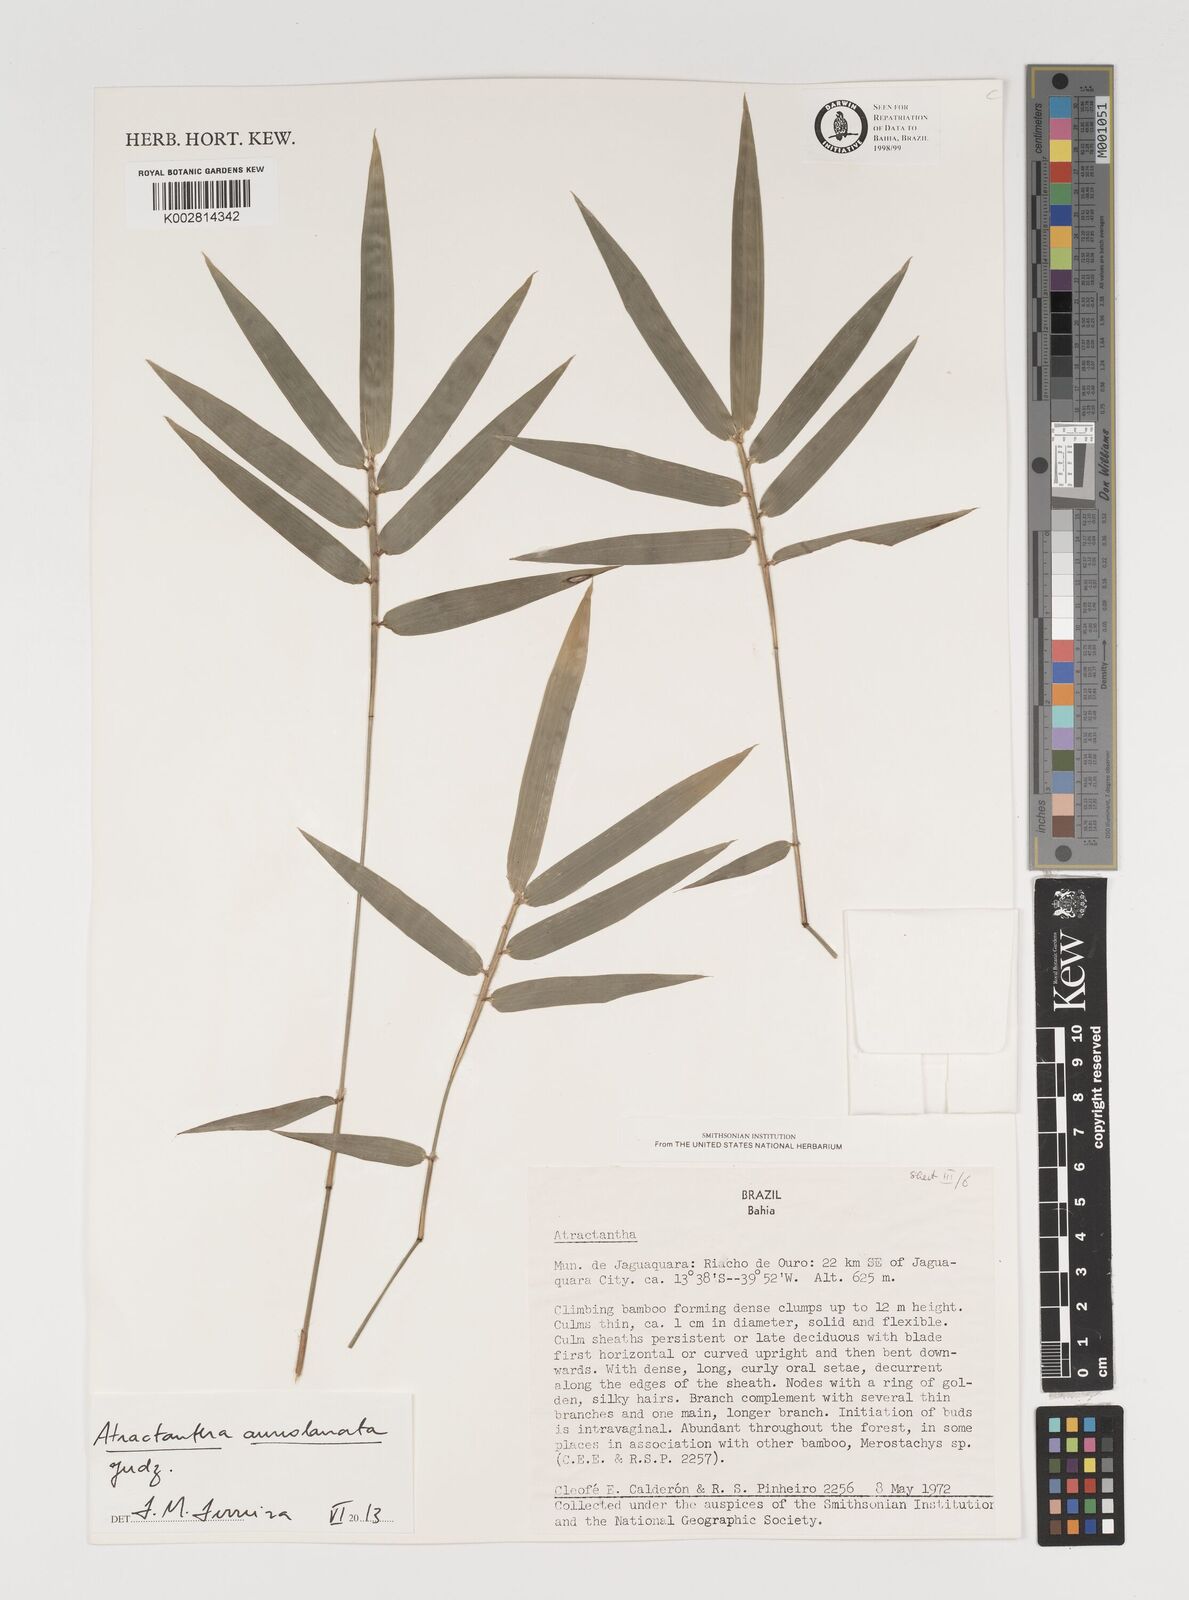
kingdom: Plantae
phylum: Tracheophyta
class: Liliopsida
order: Poales
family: Poaceae
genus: Atractantha
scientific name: Atractantha aureolanata
